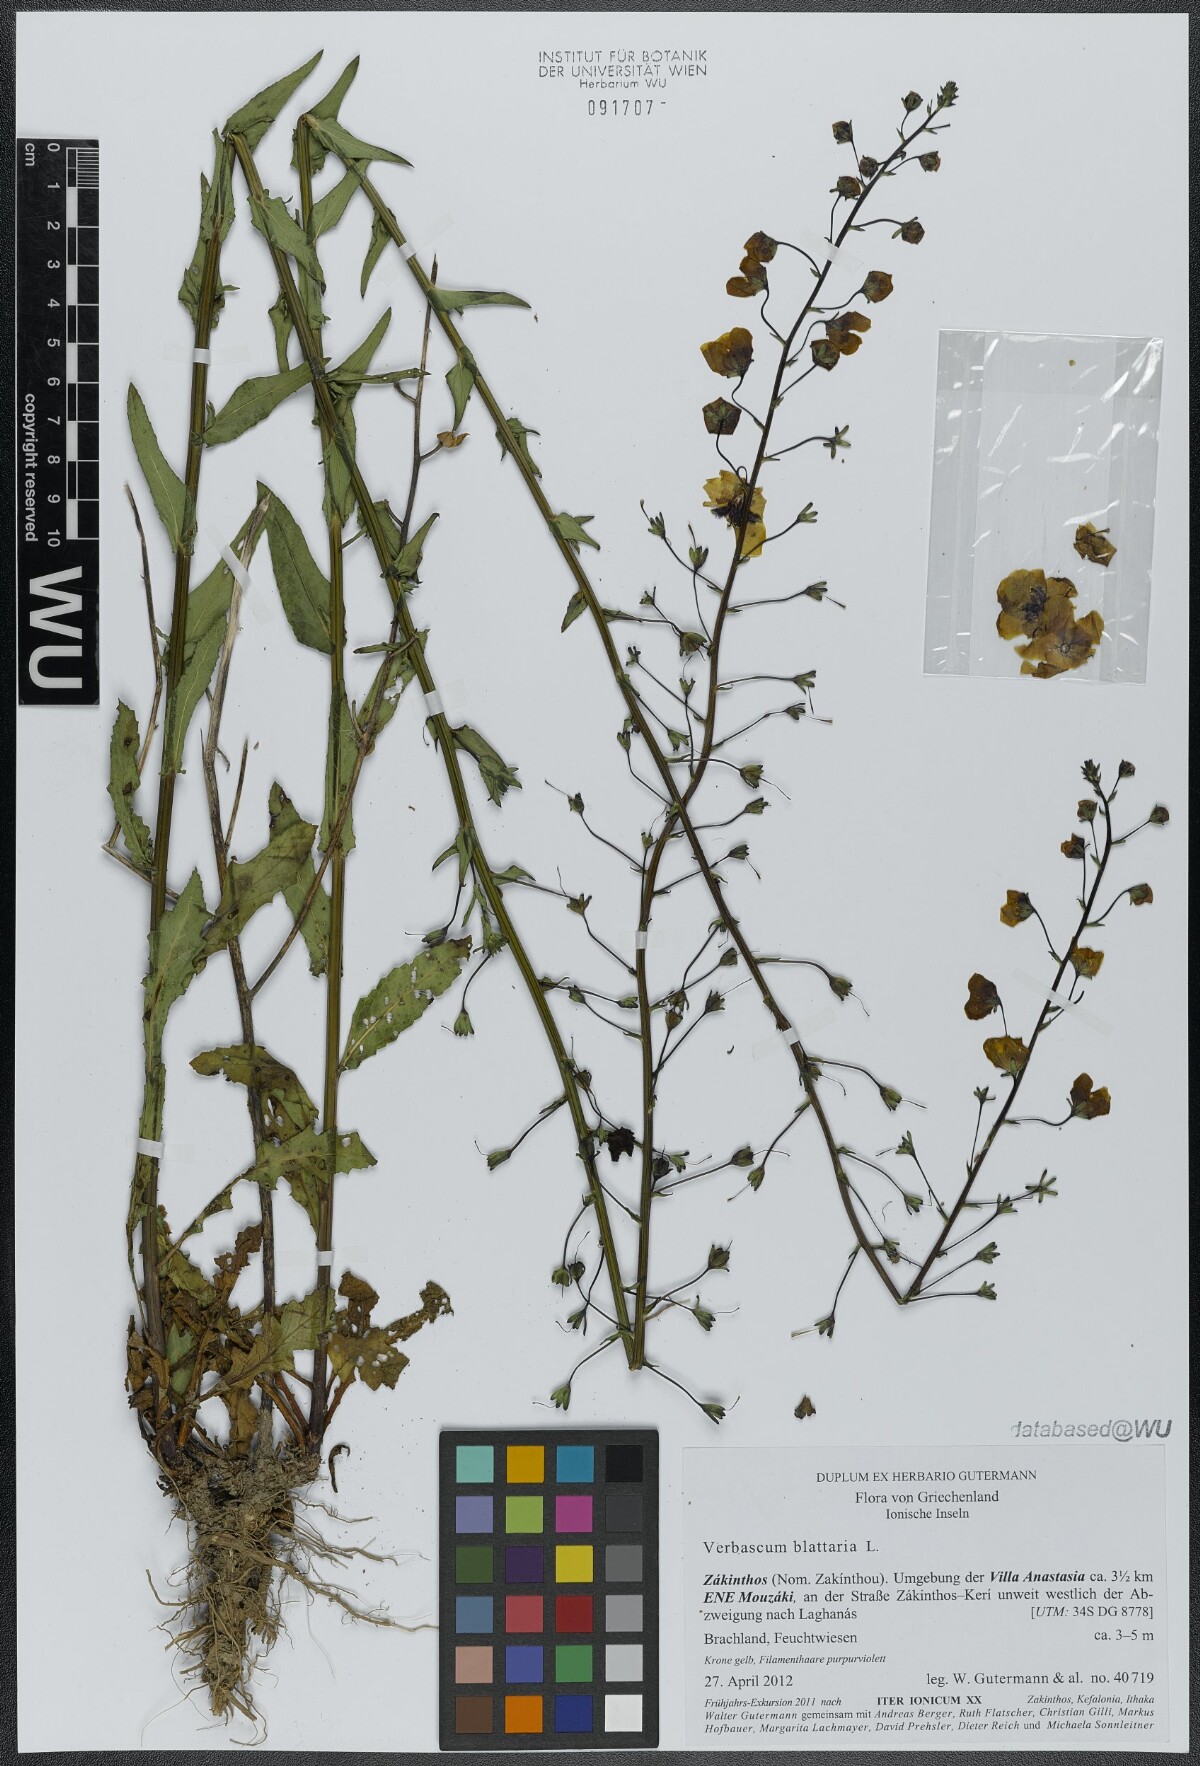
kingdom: Plantae
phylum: Tracheophyta
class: Magnoliopsida
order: Lamiales
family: Scrophulariaceae
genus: Verbascum
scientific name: Verbascum blattaria
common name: Moth mullein
